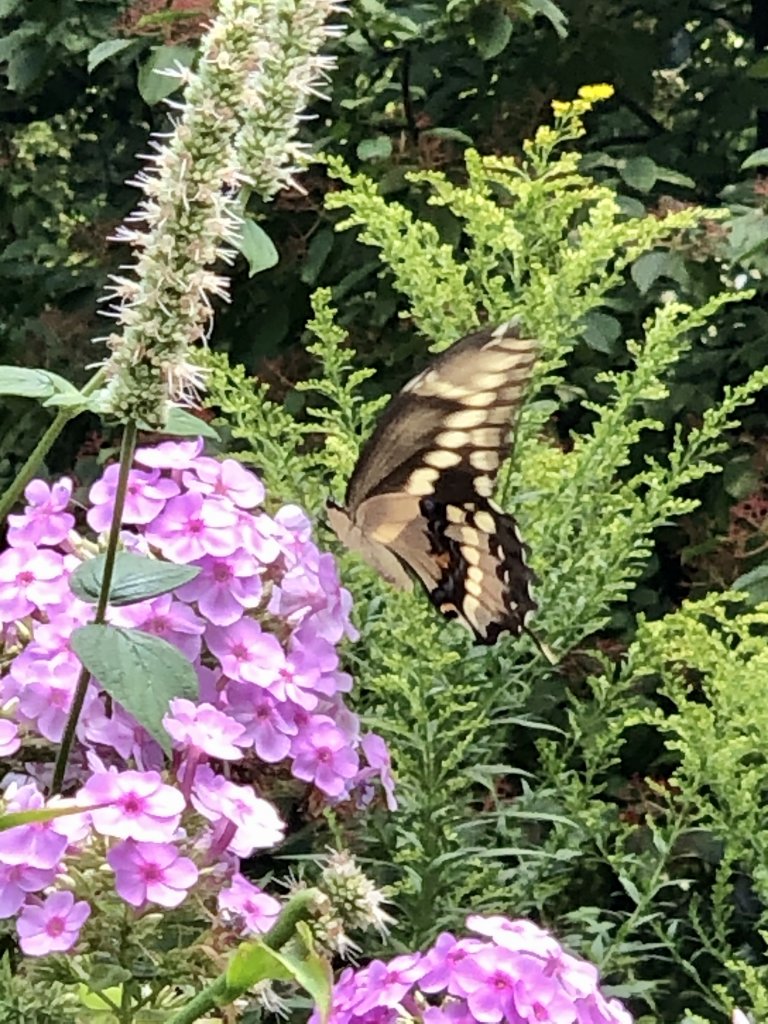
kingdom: Animalia
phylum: Arthropoda
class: Insecta
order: Lepidoptera
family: Papilionidae
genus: Papilio
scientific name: Papilio cresphontes
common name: Eastern Giant Swallowtail
